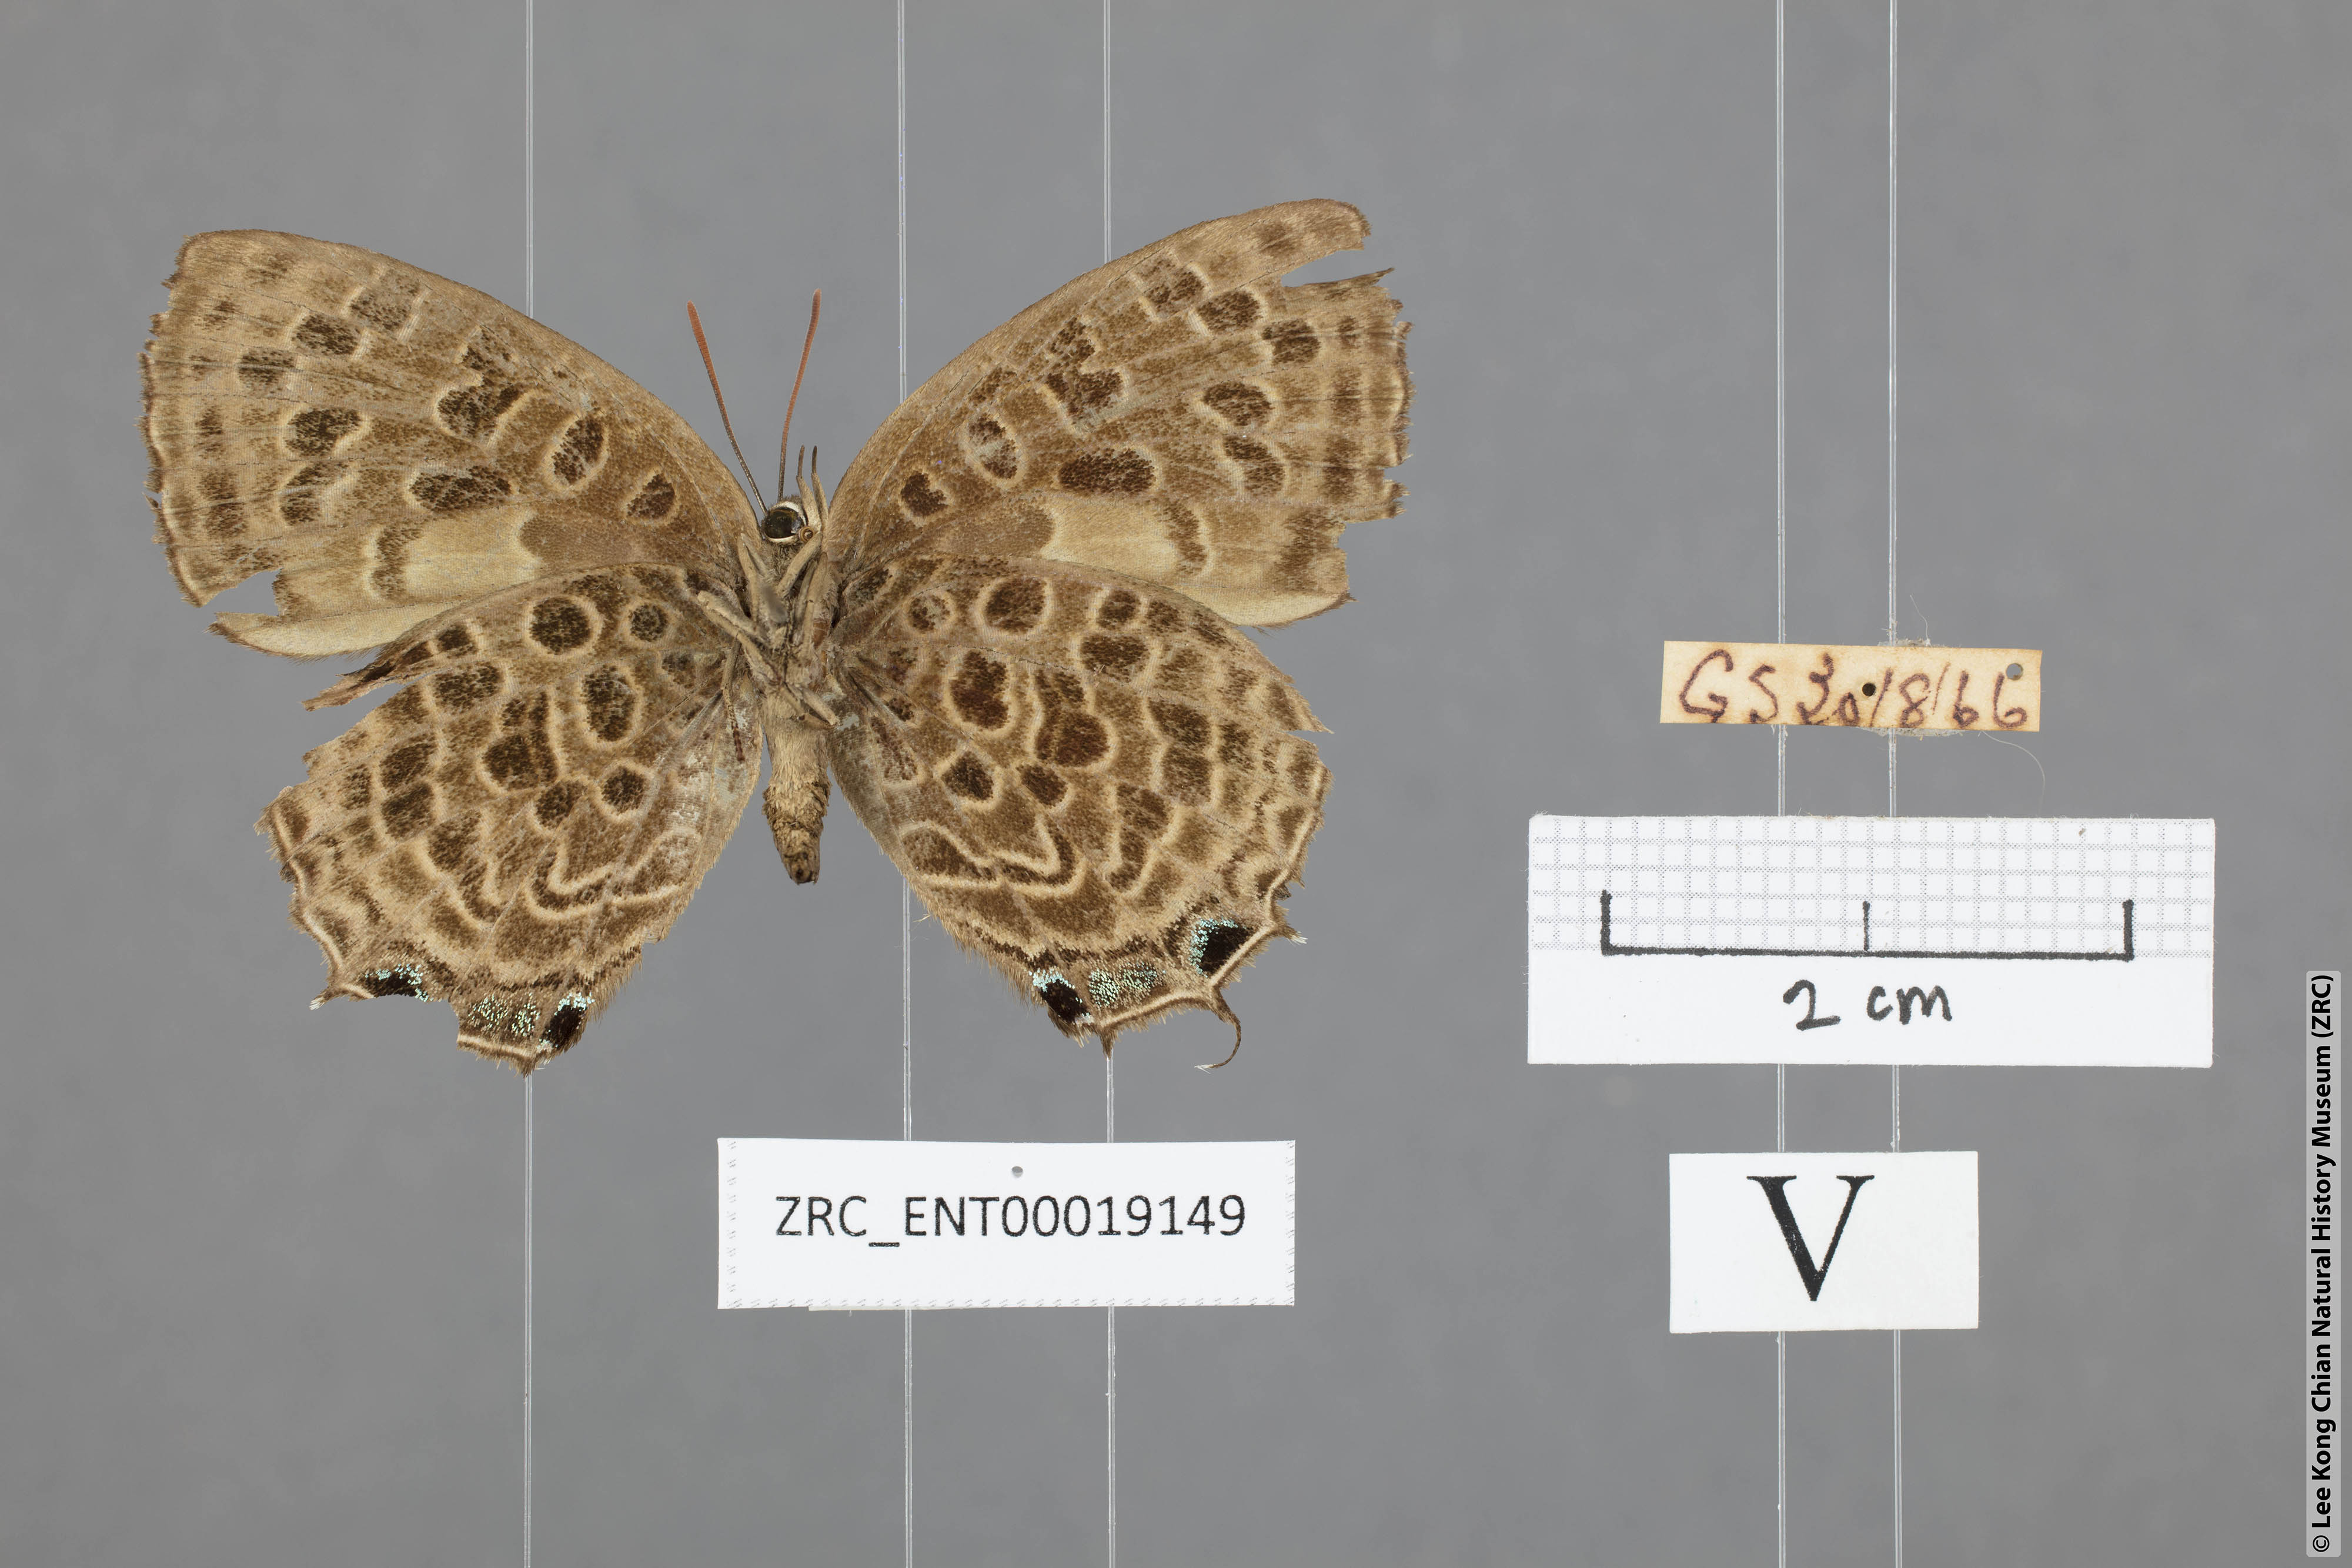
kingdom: Animalia
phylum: Arthropoda
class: Insecta
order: Lepidoptera
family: Lycaenidae
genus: Arhopala
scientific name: Arhopala anella
